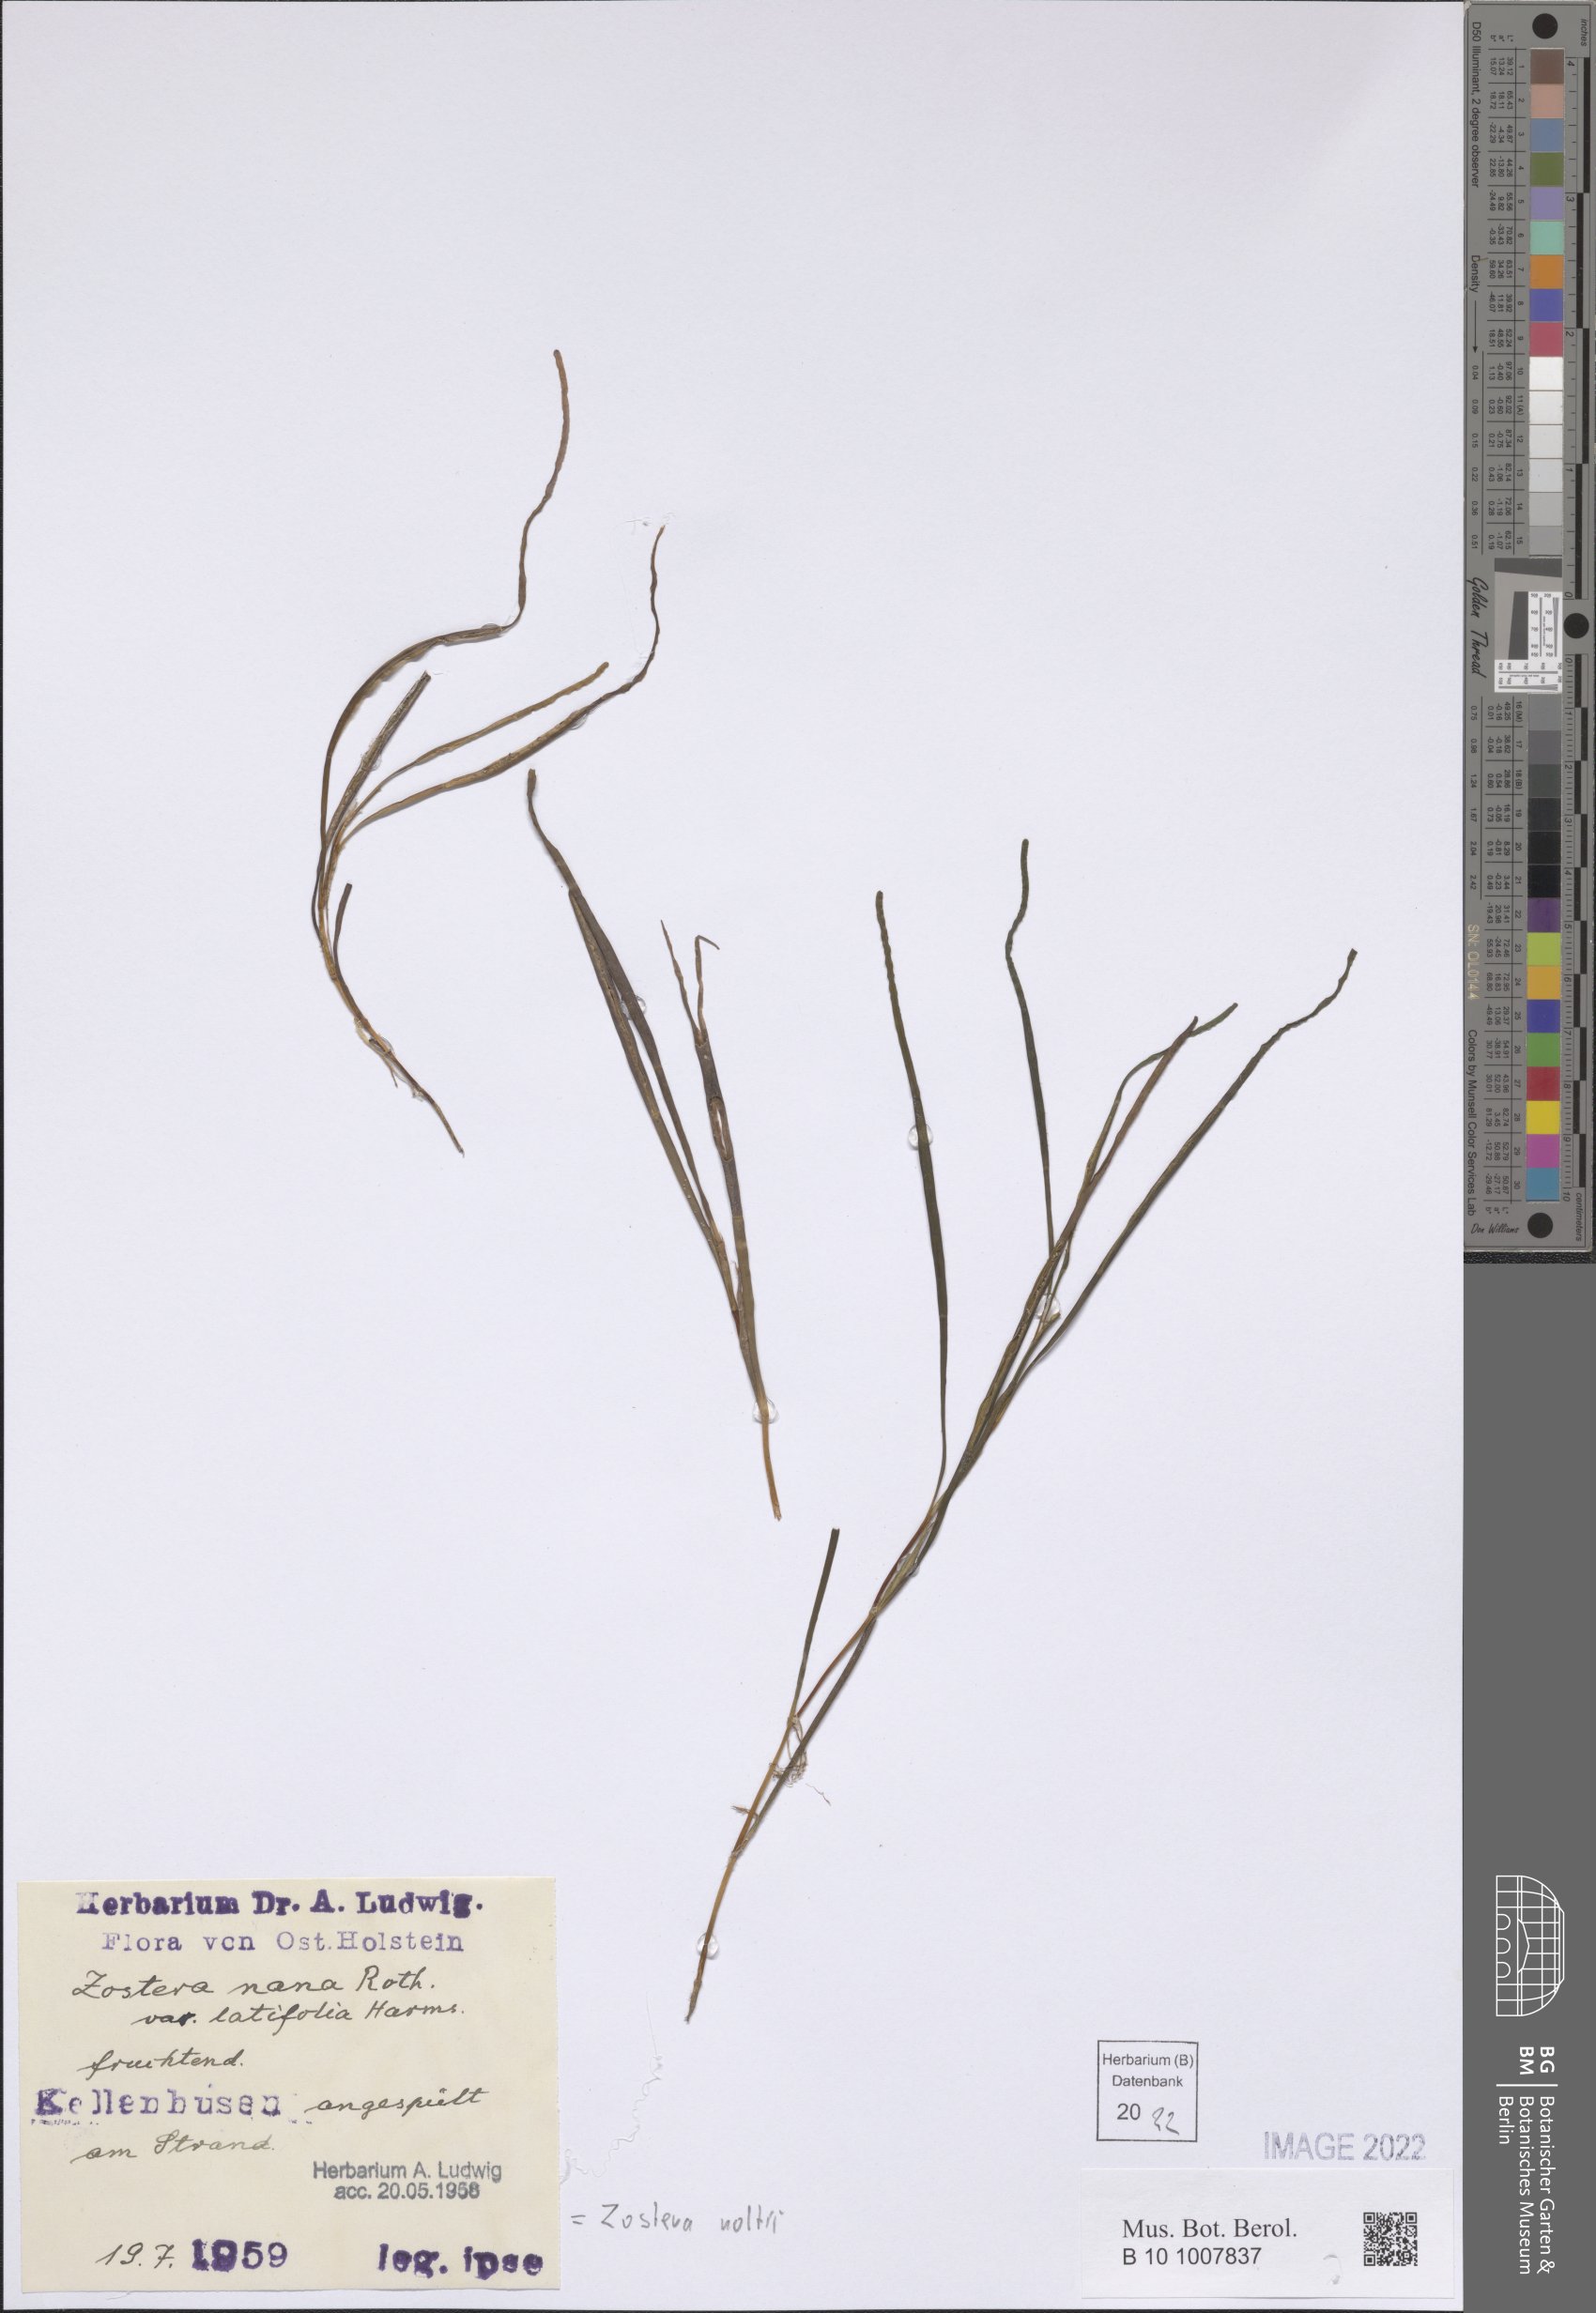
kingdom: Plantae
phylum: Tracheophyta
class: Liliopsida
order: Alismatales
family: Zosteraceae
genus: Zostera
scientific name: Zostera noltii
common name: Dwarf eelgrass
